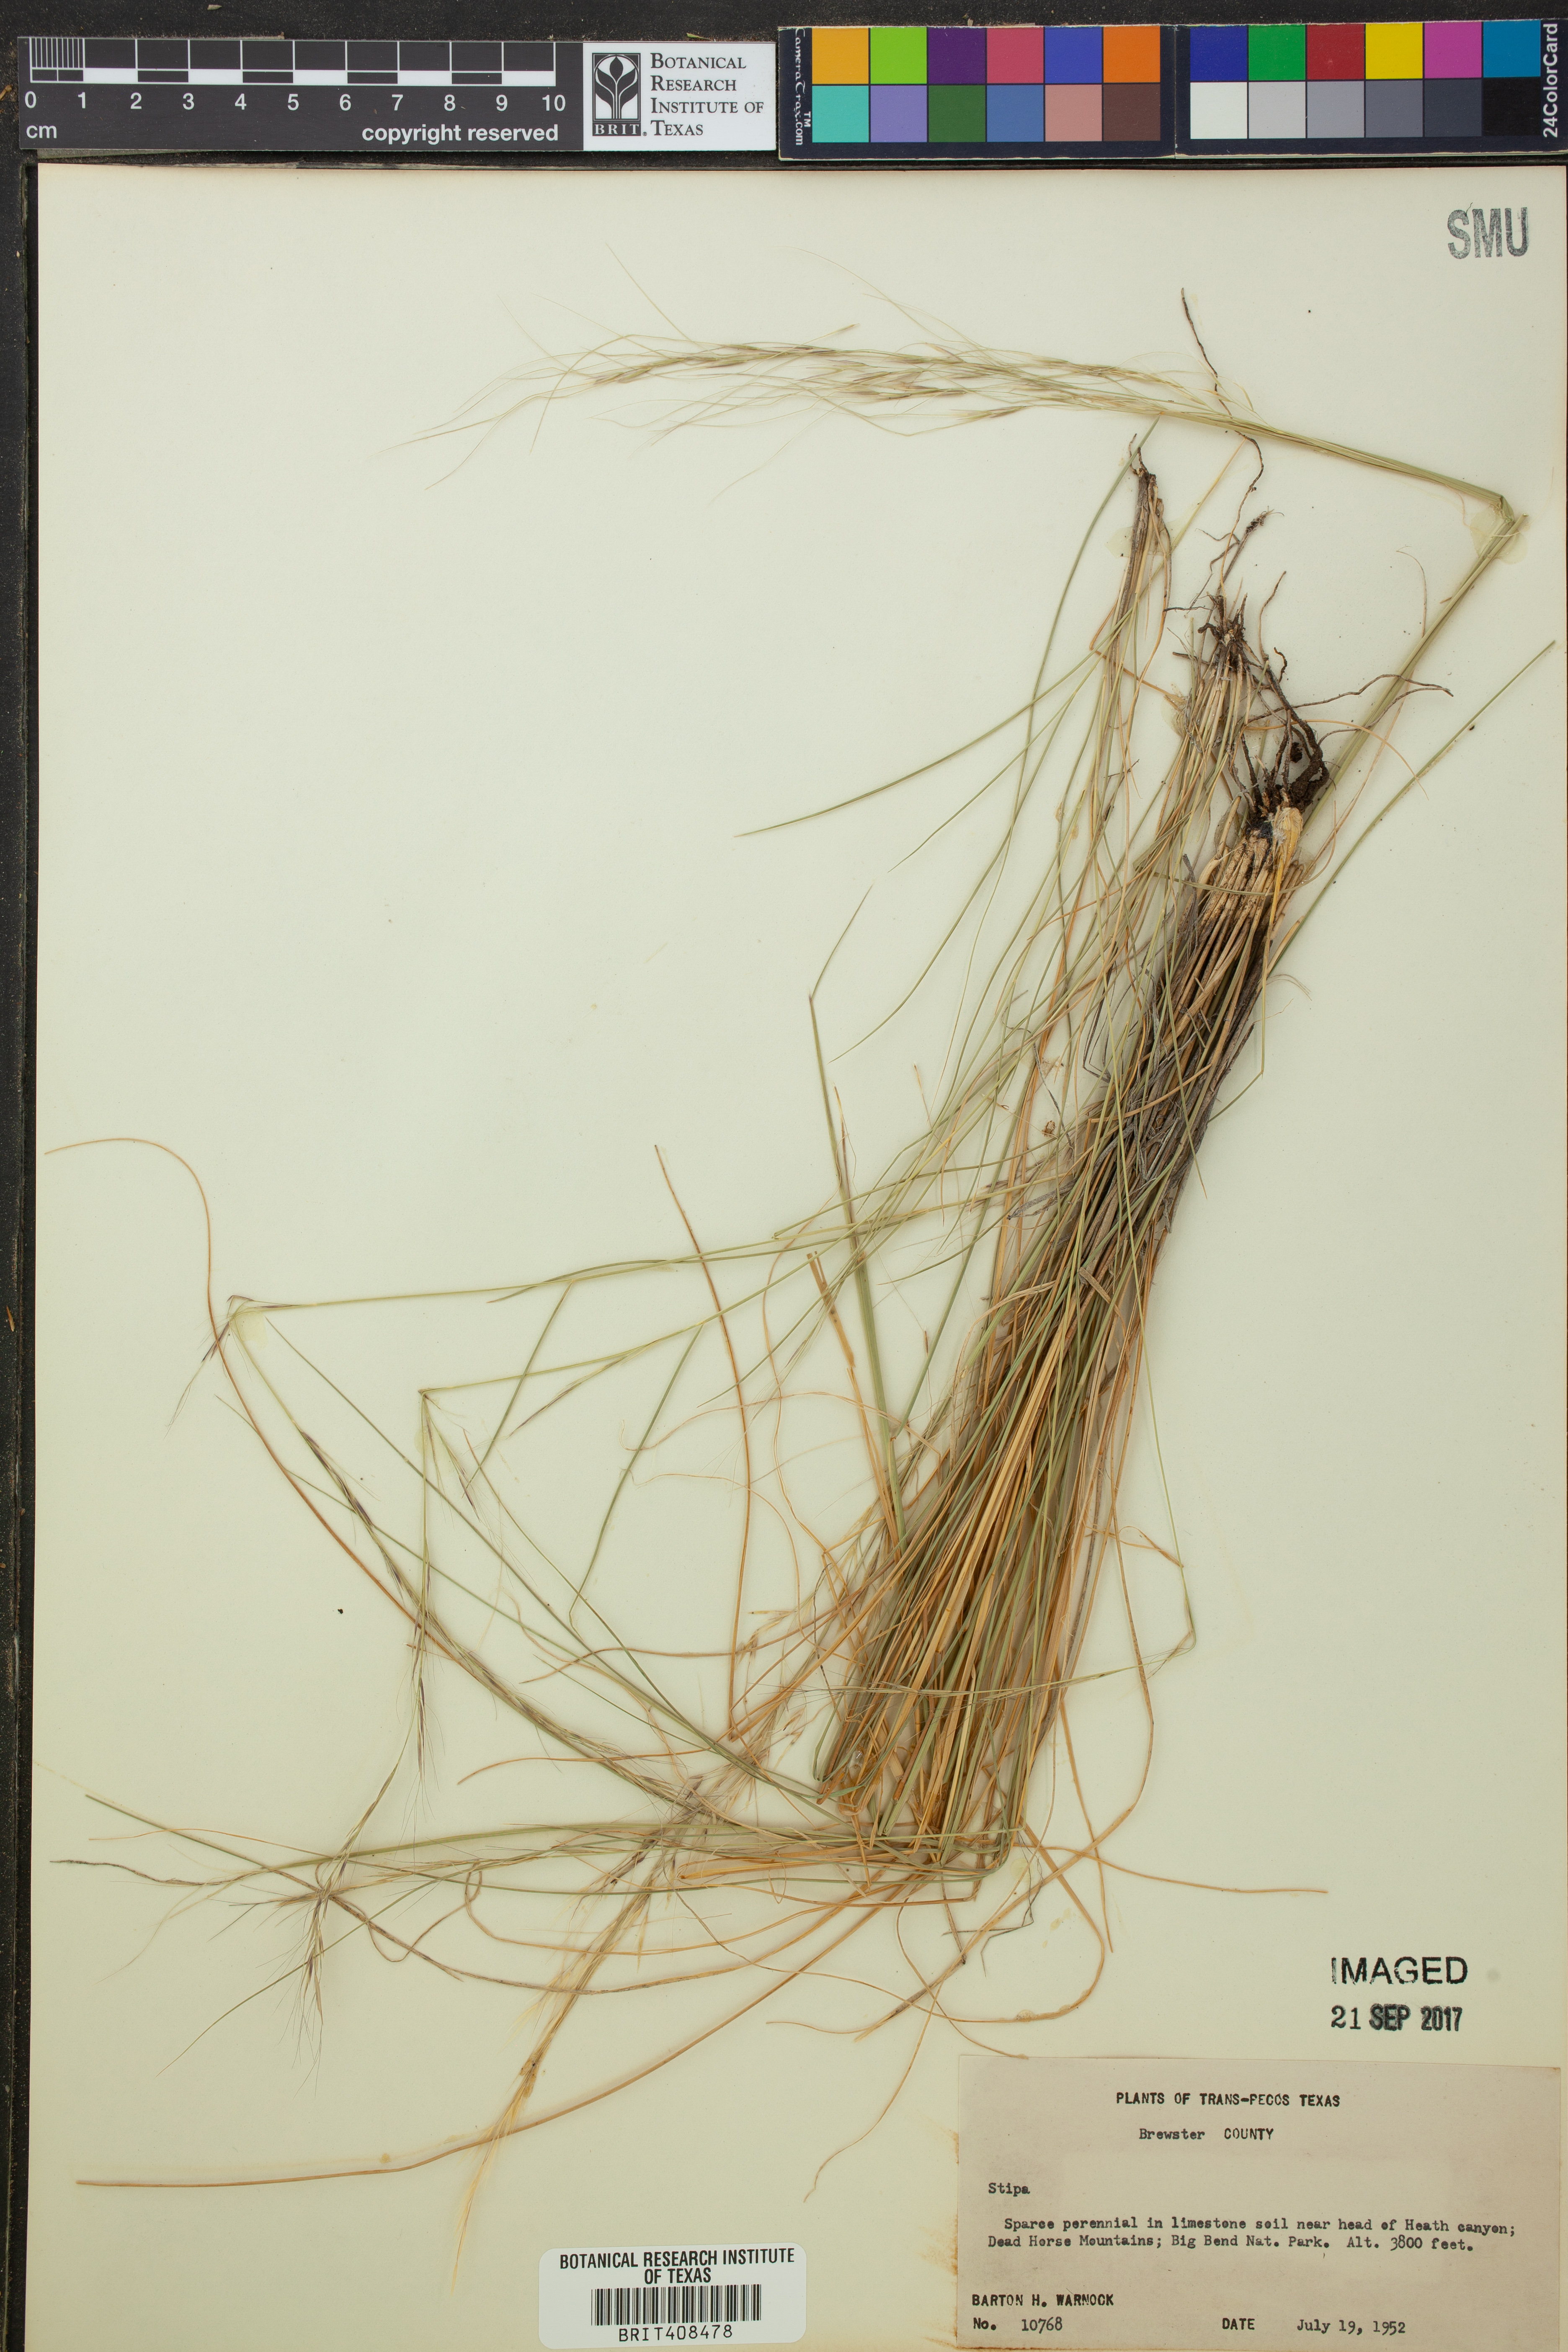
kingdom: Plantae
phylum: Tracheophyta
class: Liliopsida
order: Poales
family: Poaceae
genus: Stipa
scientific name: Stipa
